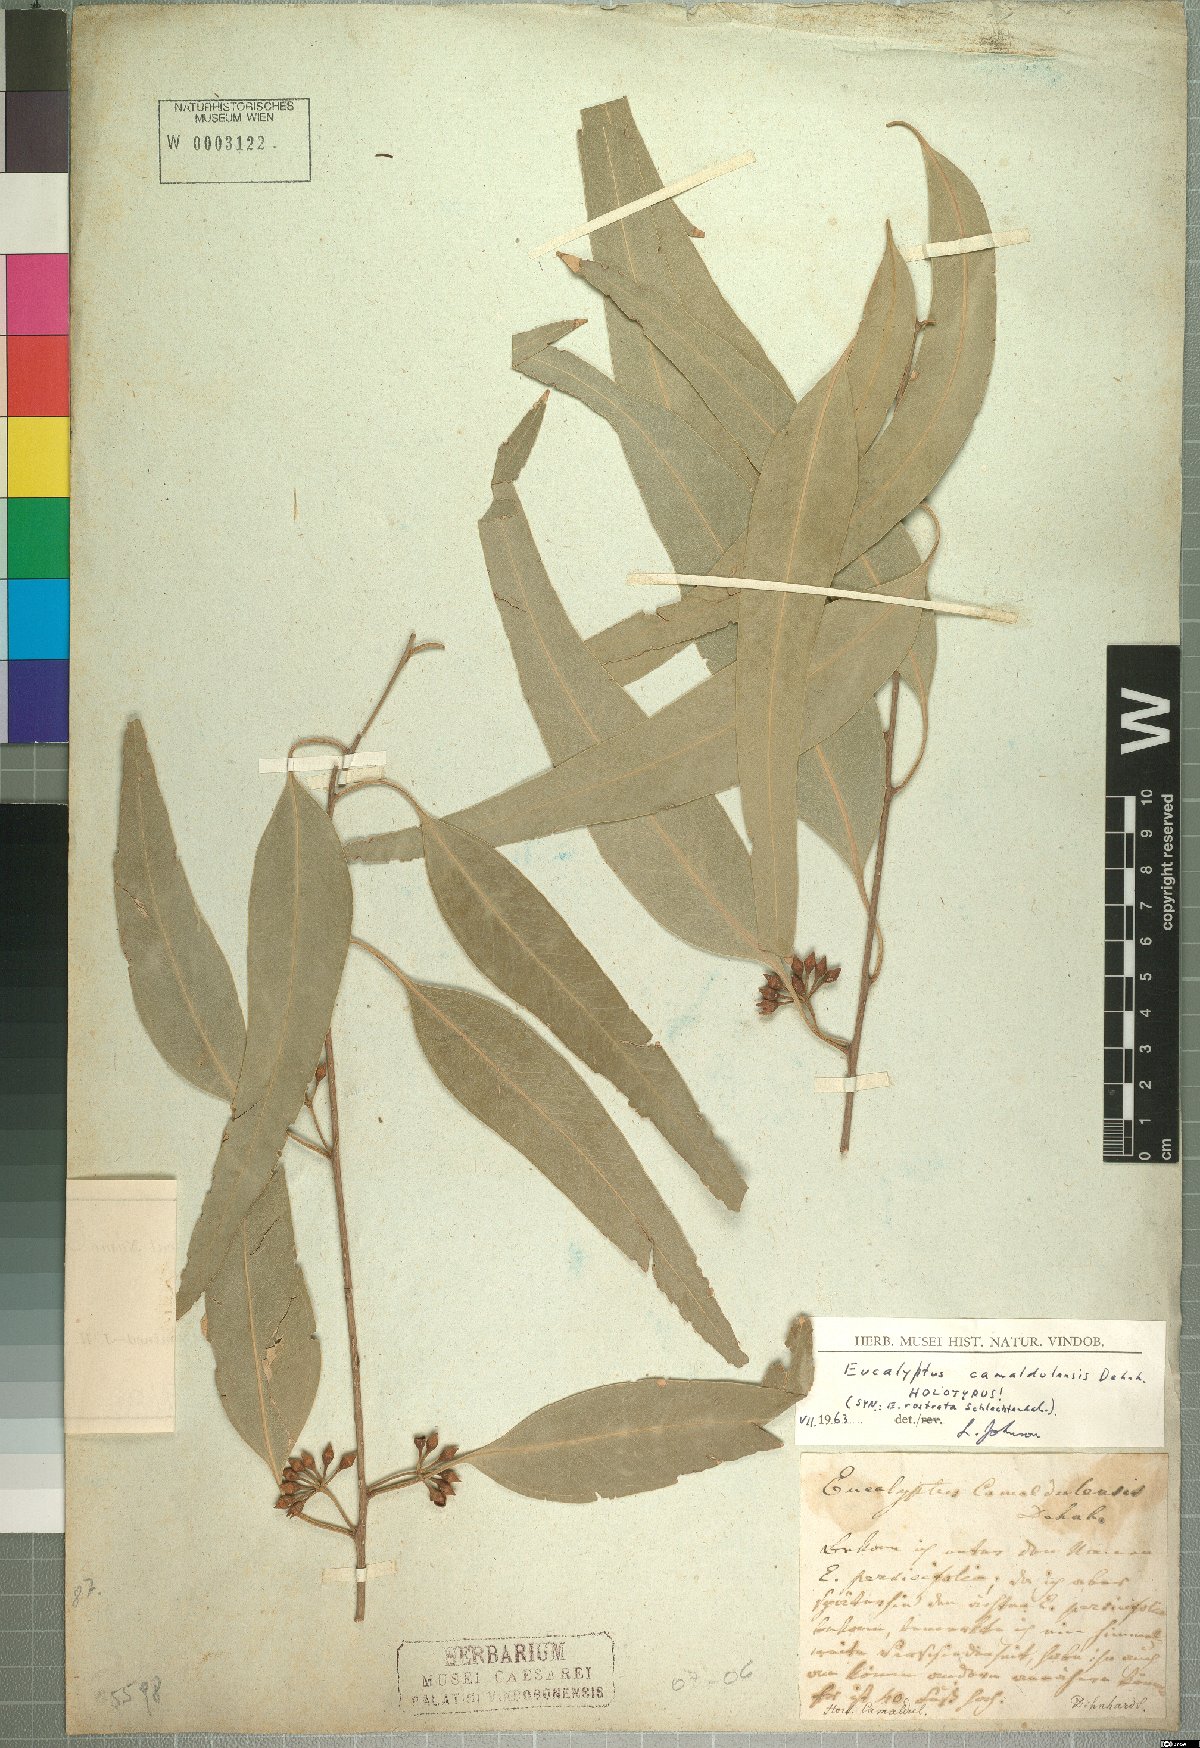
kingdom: Plantae
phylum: Tracheophyta
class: Magnoliopsida
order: Myrtales
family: Myrtaceae
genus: Eucalyptus
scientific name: Eucalyptus camaldulensis
